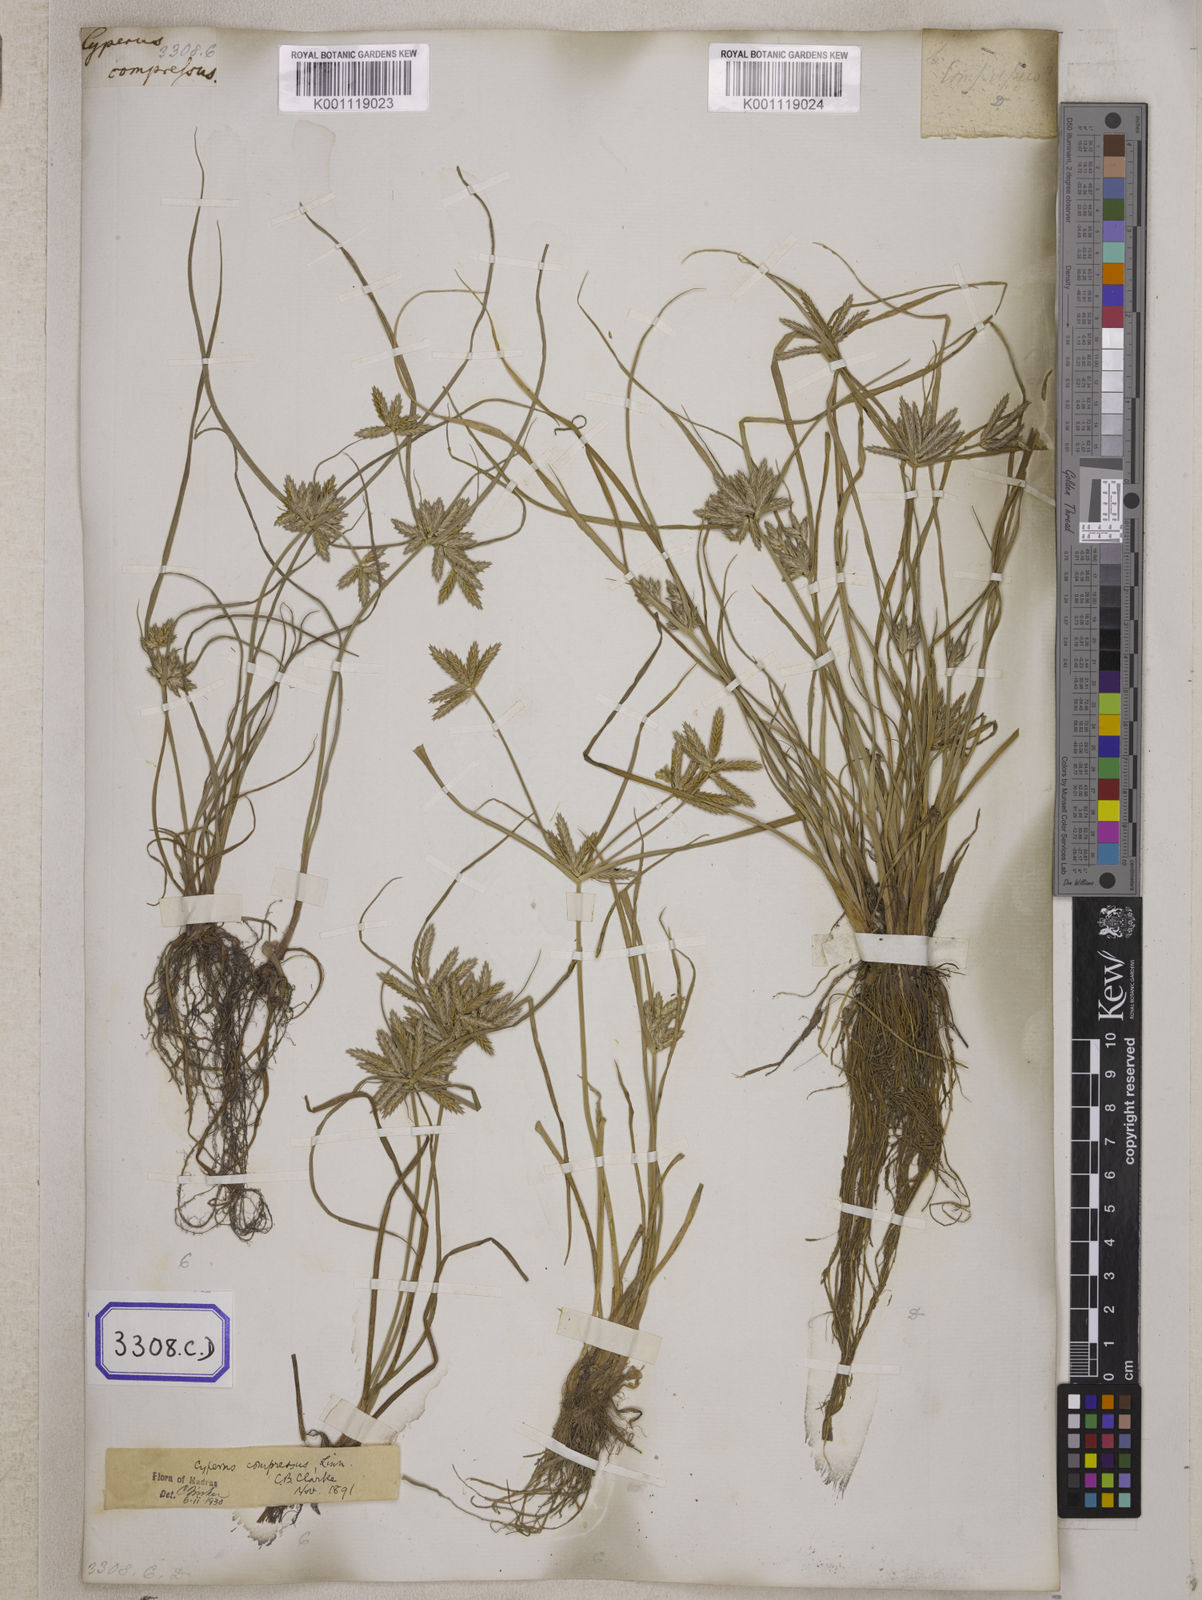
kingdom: Plantae
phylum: Tracheophyta
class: Liliopsida
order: Poales
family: Cyperaceae
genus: Cyperus
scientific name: Cyperus
